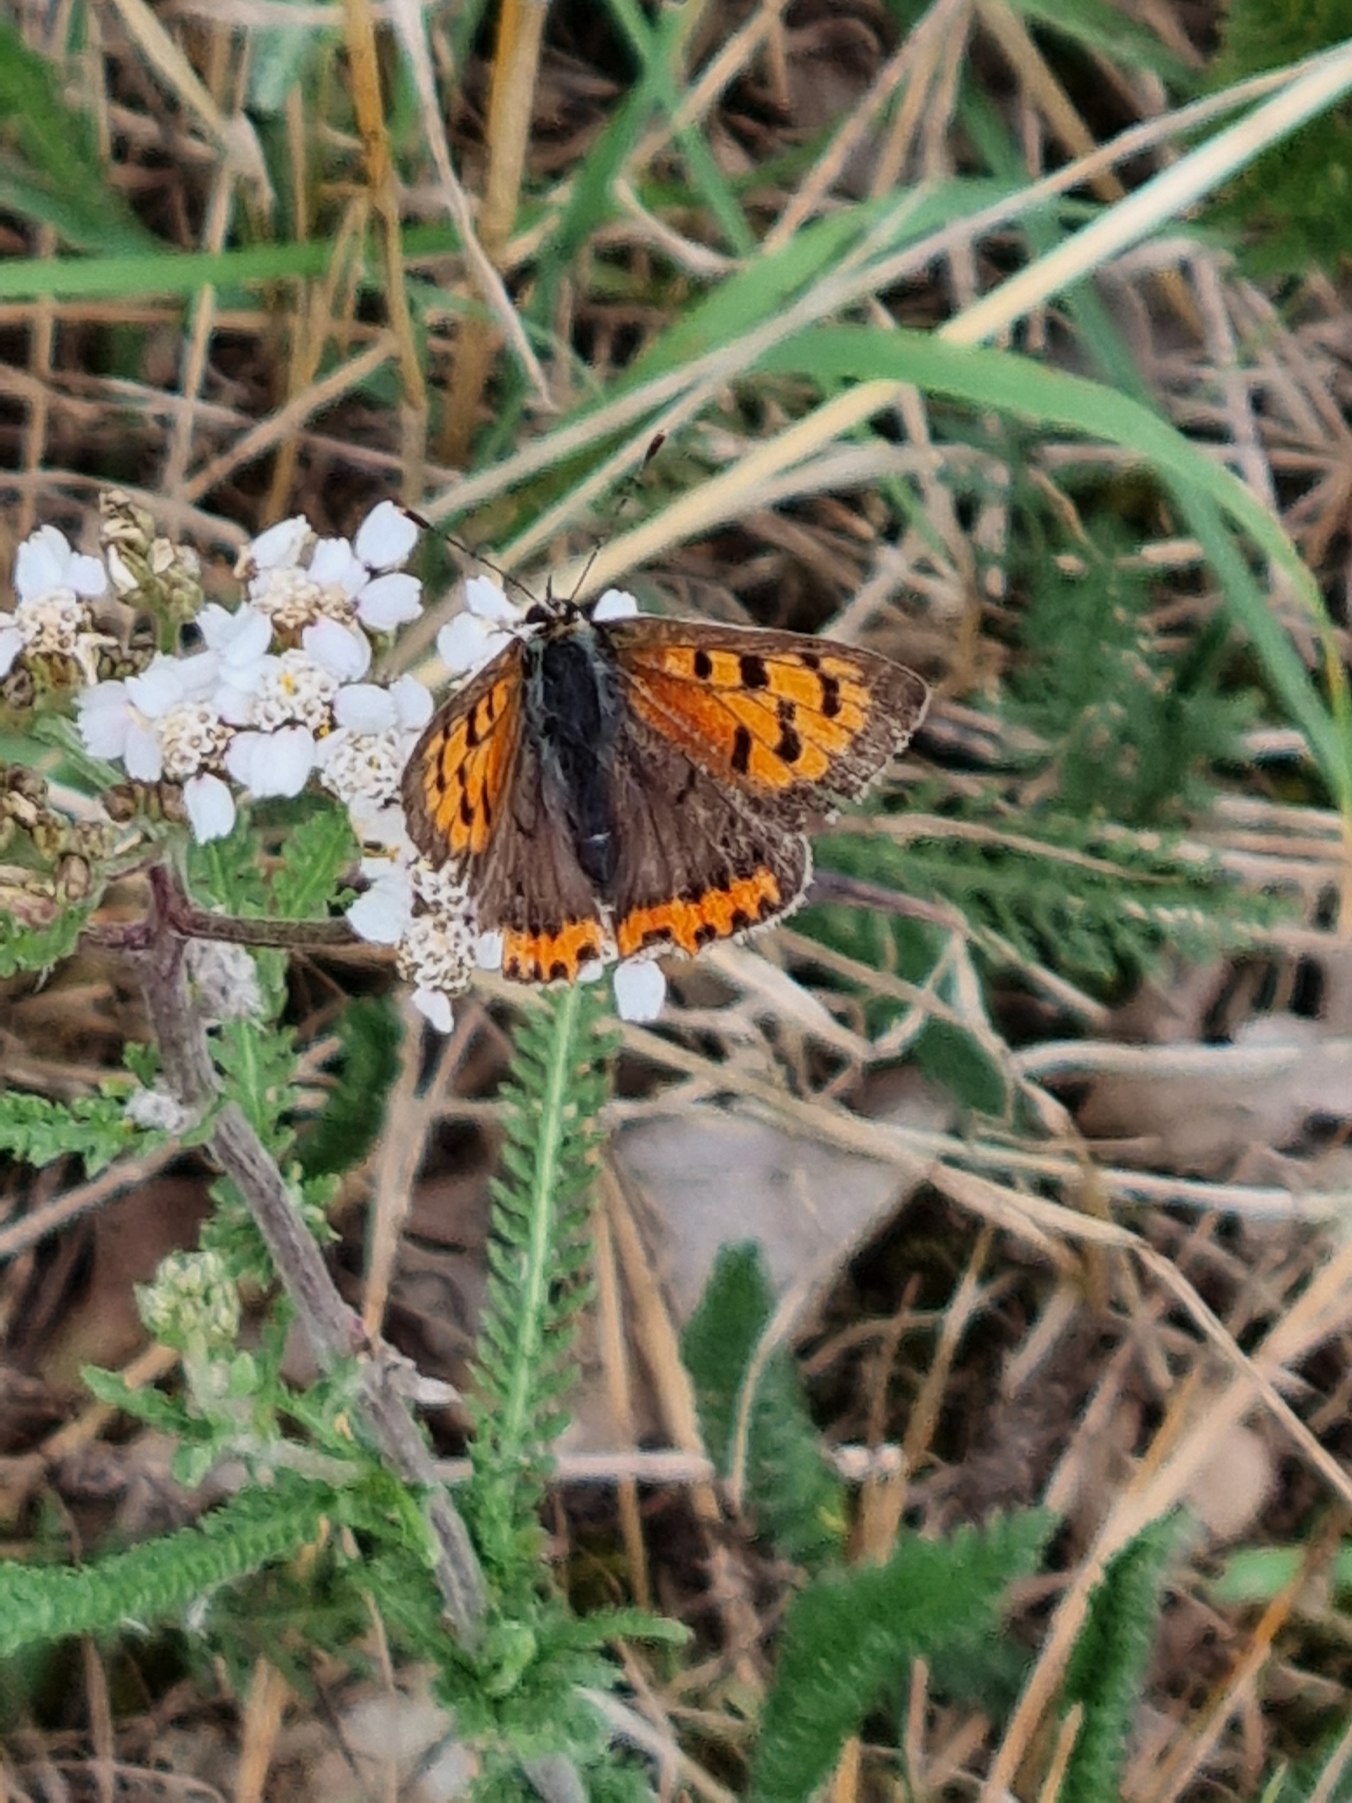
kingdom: Animalia
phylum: Arthropoda
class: Insecta
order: Lepidoptera
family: Lycaenidae
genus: Lycaena
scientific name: Lycaena phlaeas
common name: Lille ildfugl
